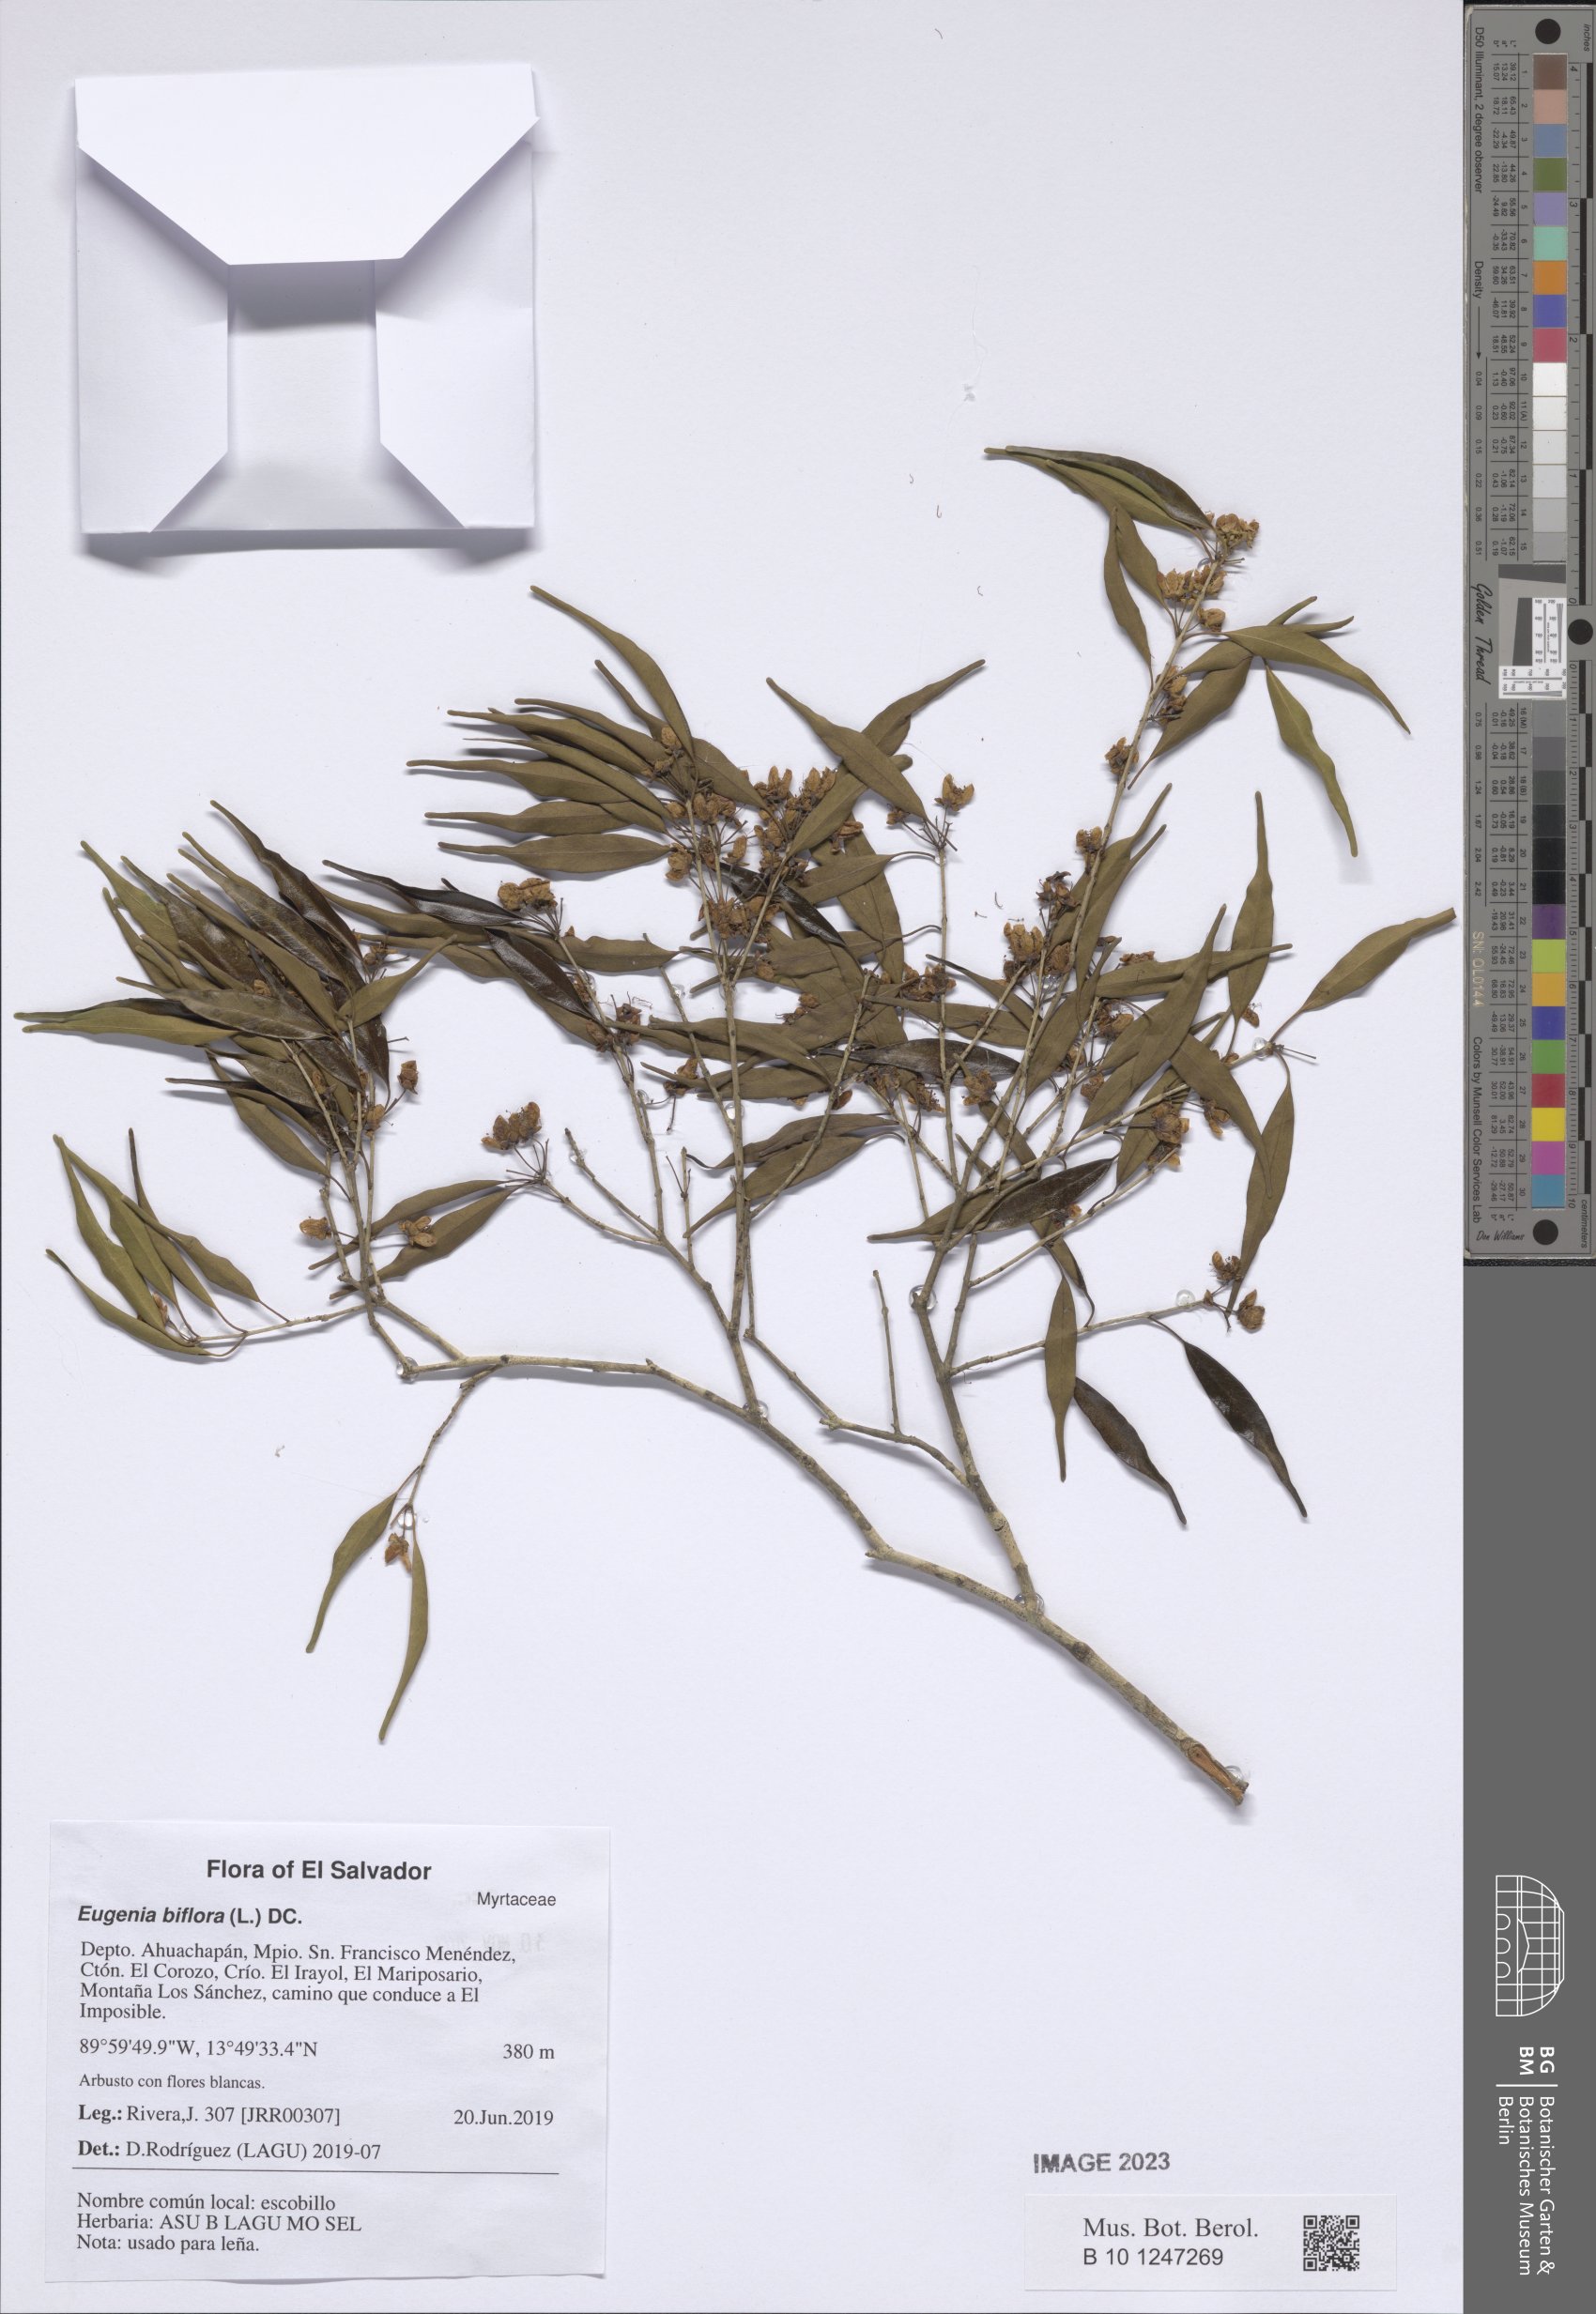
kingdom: Plantae
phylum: Tracheophyta
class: Magnoliopsida
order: Myrtales
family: Myrtaceae
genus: Eugenia
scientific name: Eugenia biflora
